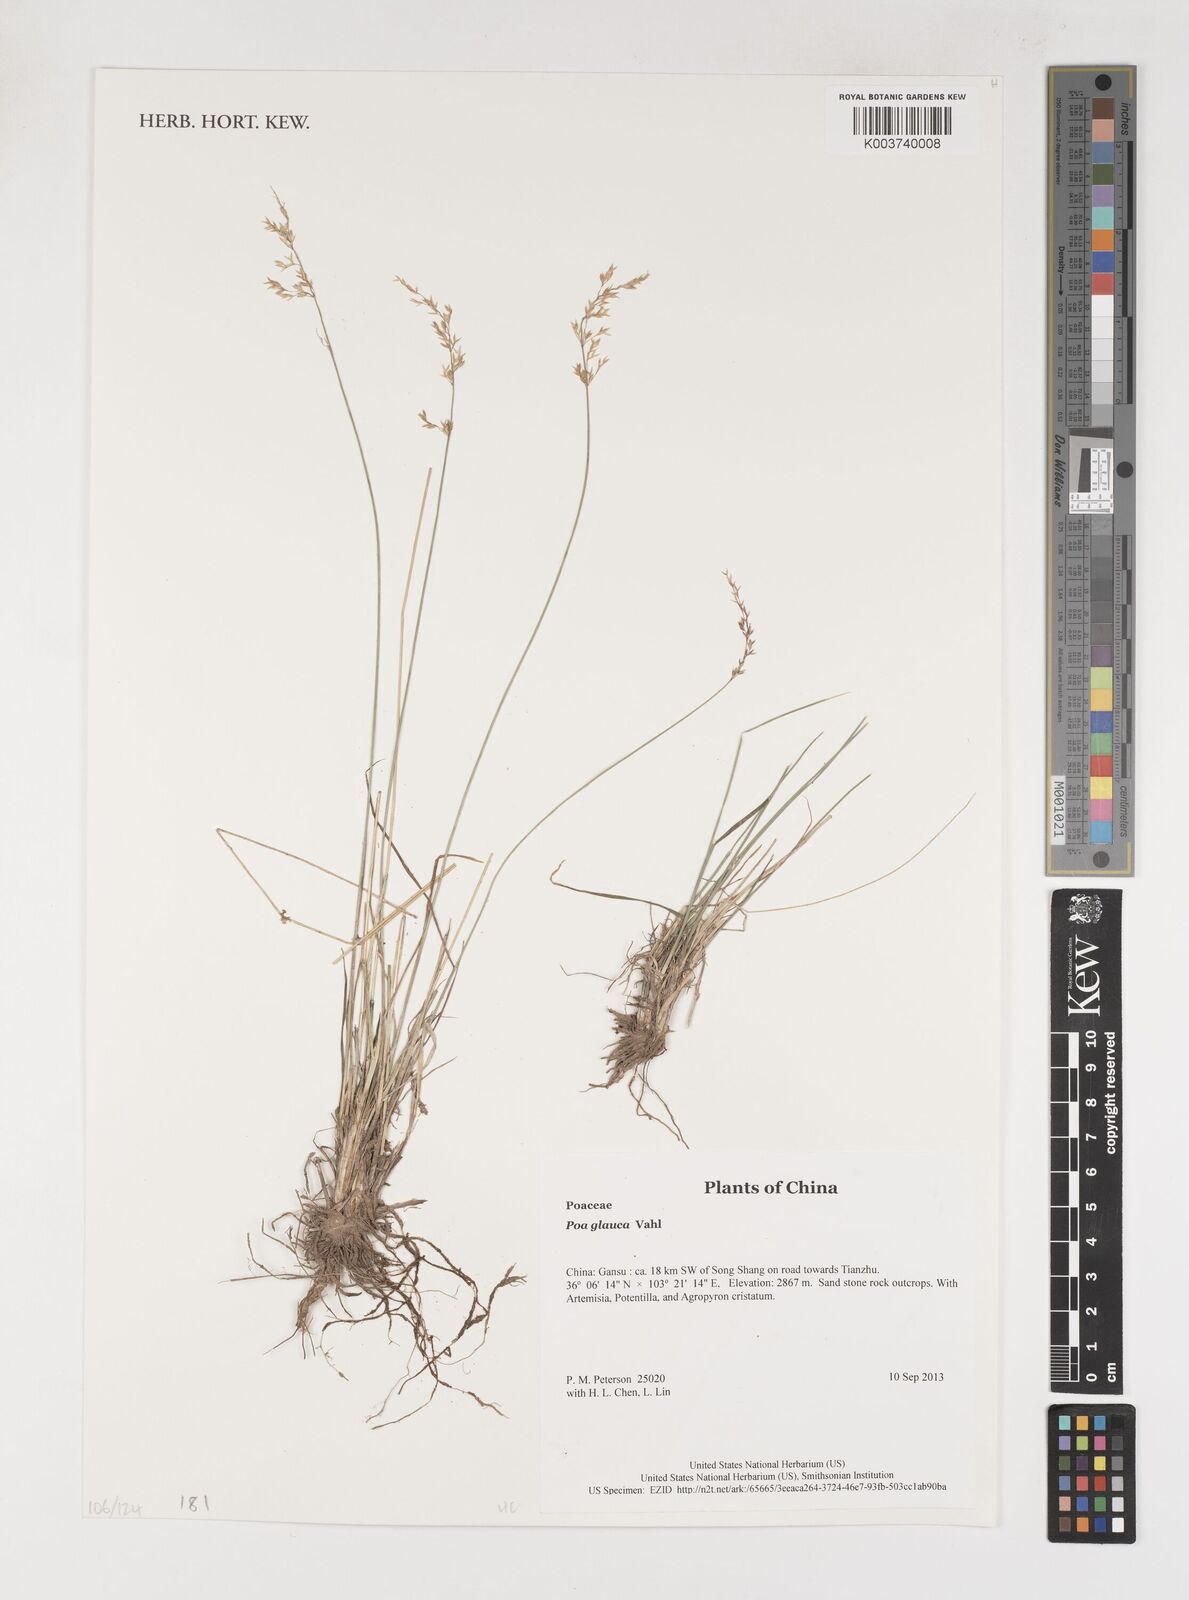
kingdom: Plantae
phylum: Tracheophyta
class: Liliopsida
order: Poales
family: Poaceae
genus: Poa
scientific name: Poa glauca
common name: Glaucous bluegrass
